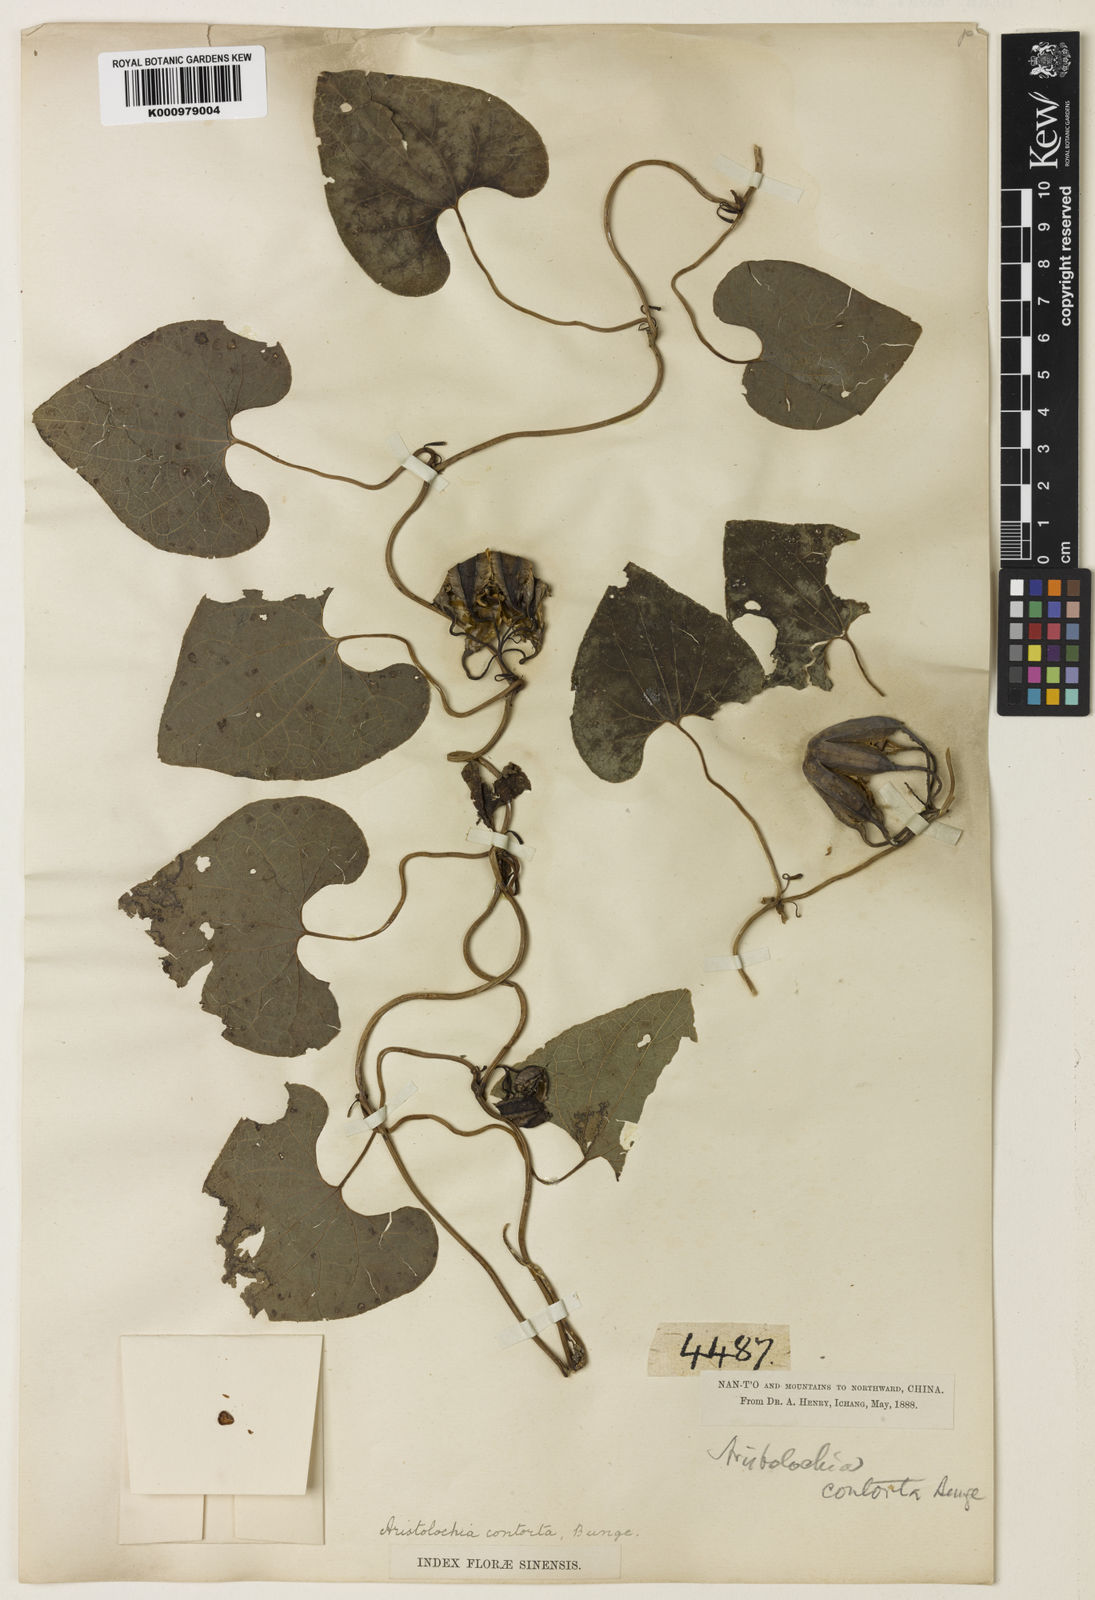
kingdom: Plantae
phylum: Tracheophyta
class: Magnoliopsida
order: Piperales
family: Aristolochiaceae
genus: Aristolochia
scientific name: Aristolochia contorta
